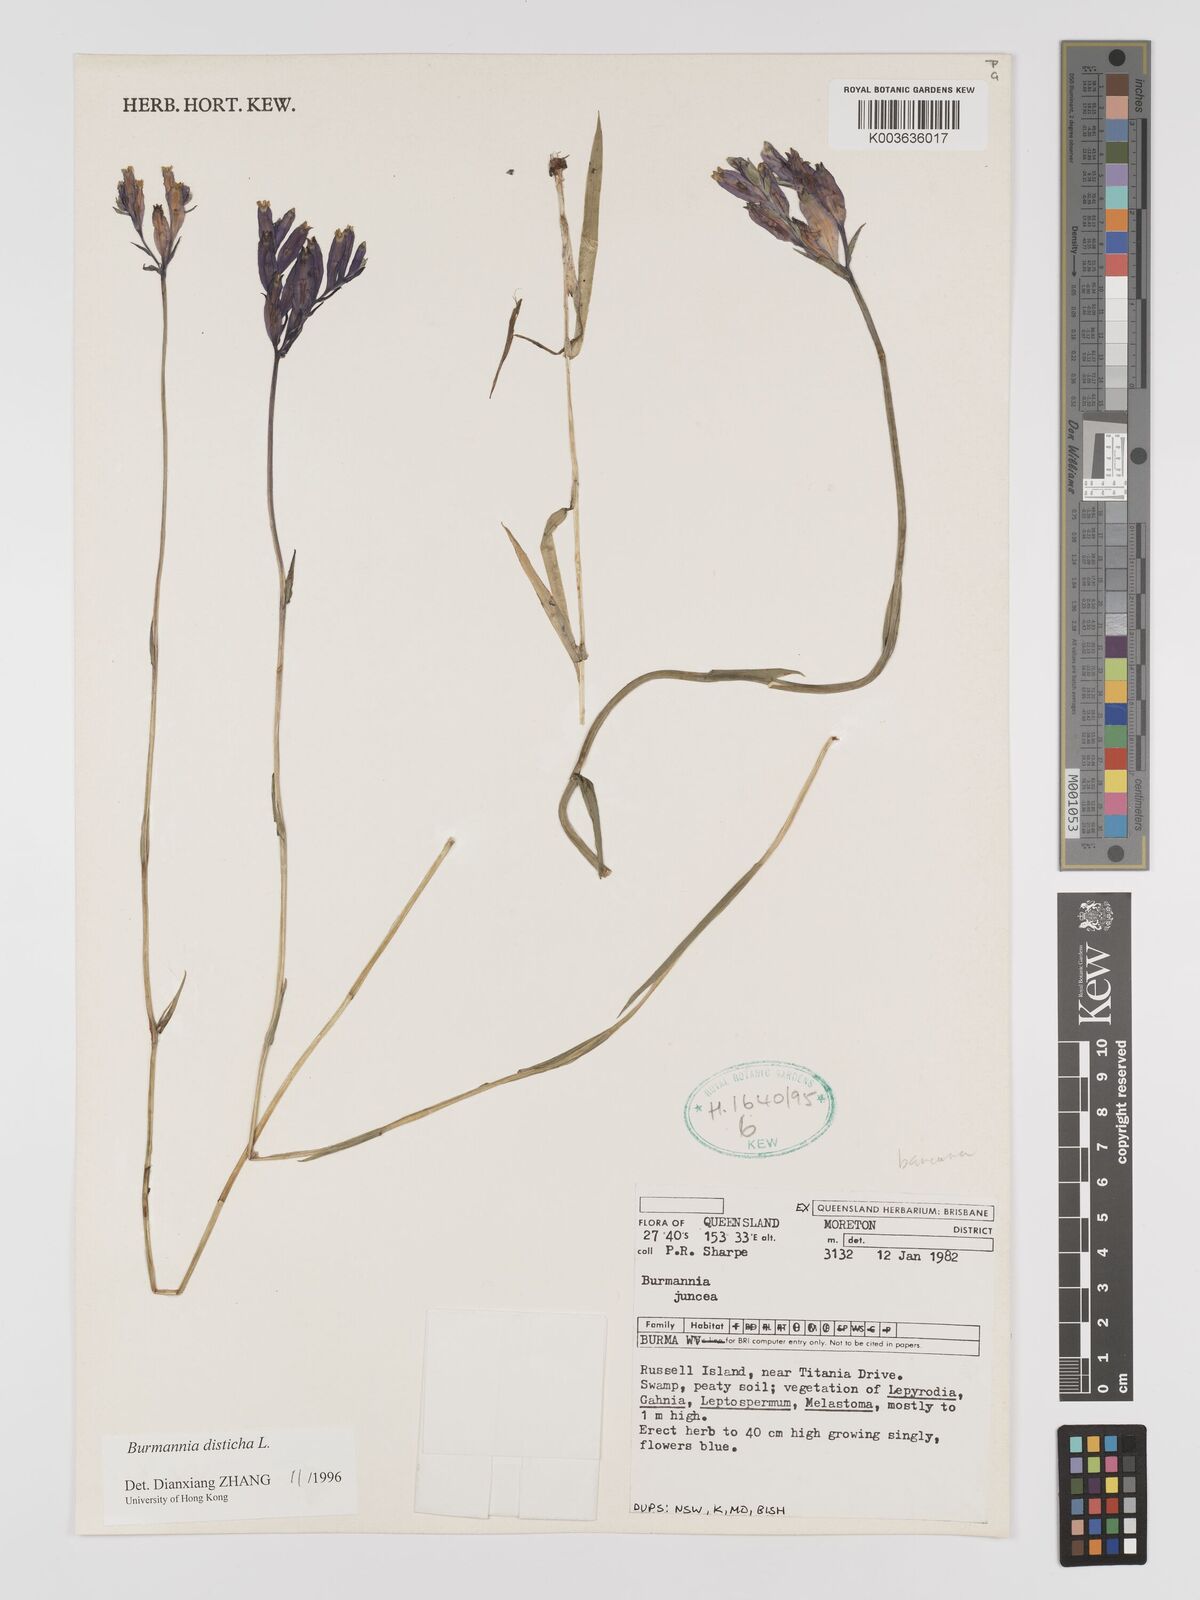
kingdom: Plantae
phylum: Tracheophyta
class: Liliopsida
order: Dioscoreales
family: Burmanniaceae
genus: Burmannia
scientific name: Burmannia disticha
